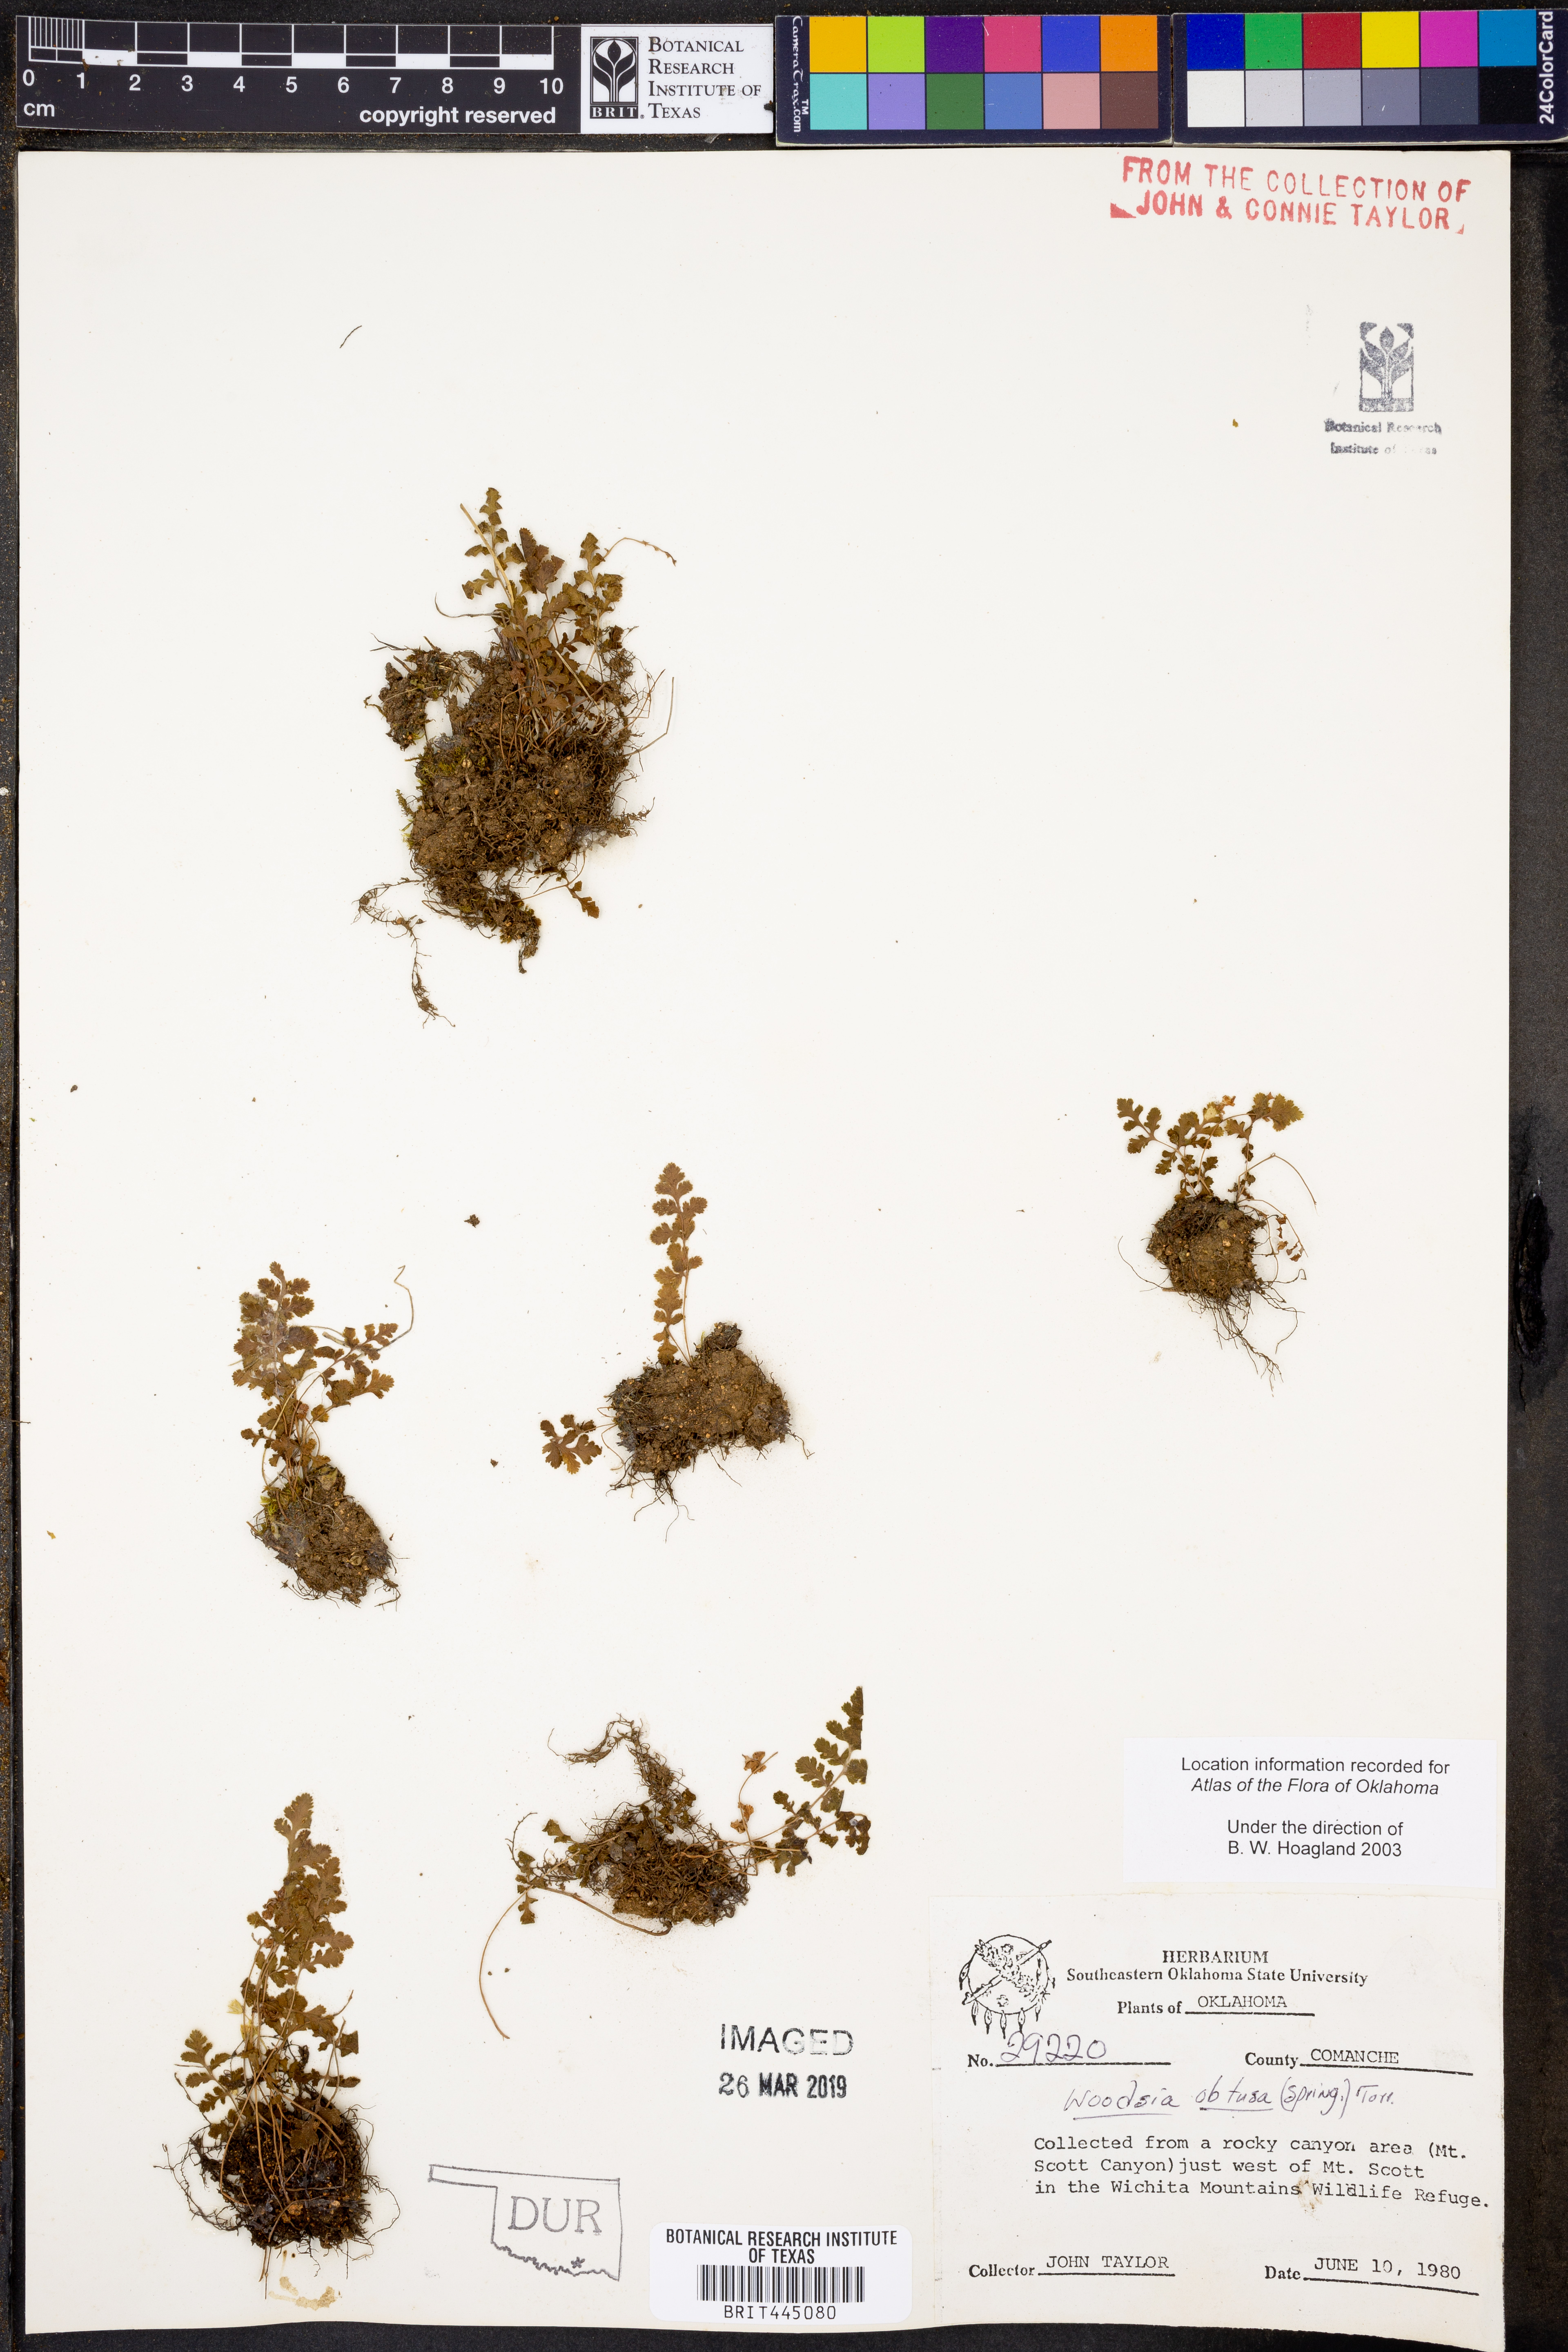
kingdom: Plantae
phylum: Tracheophyta
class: Polypodiopsida
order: Polypodiales
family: Woodsiaceae
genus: Physematium
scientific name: Physematium obtusum
